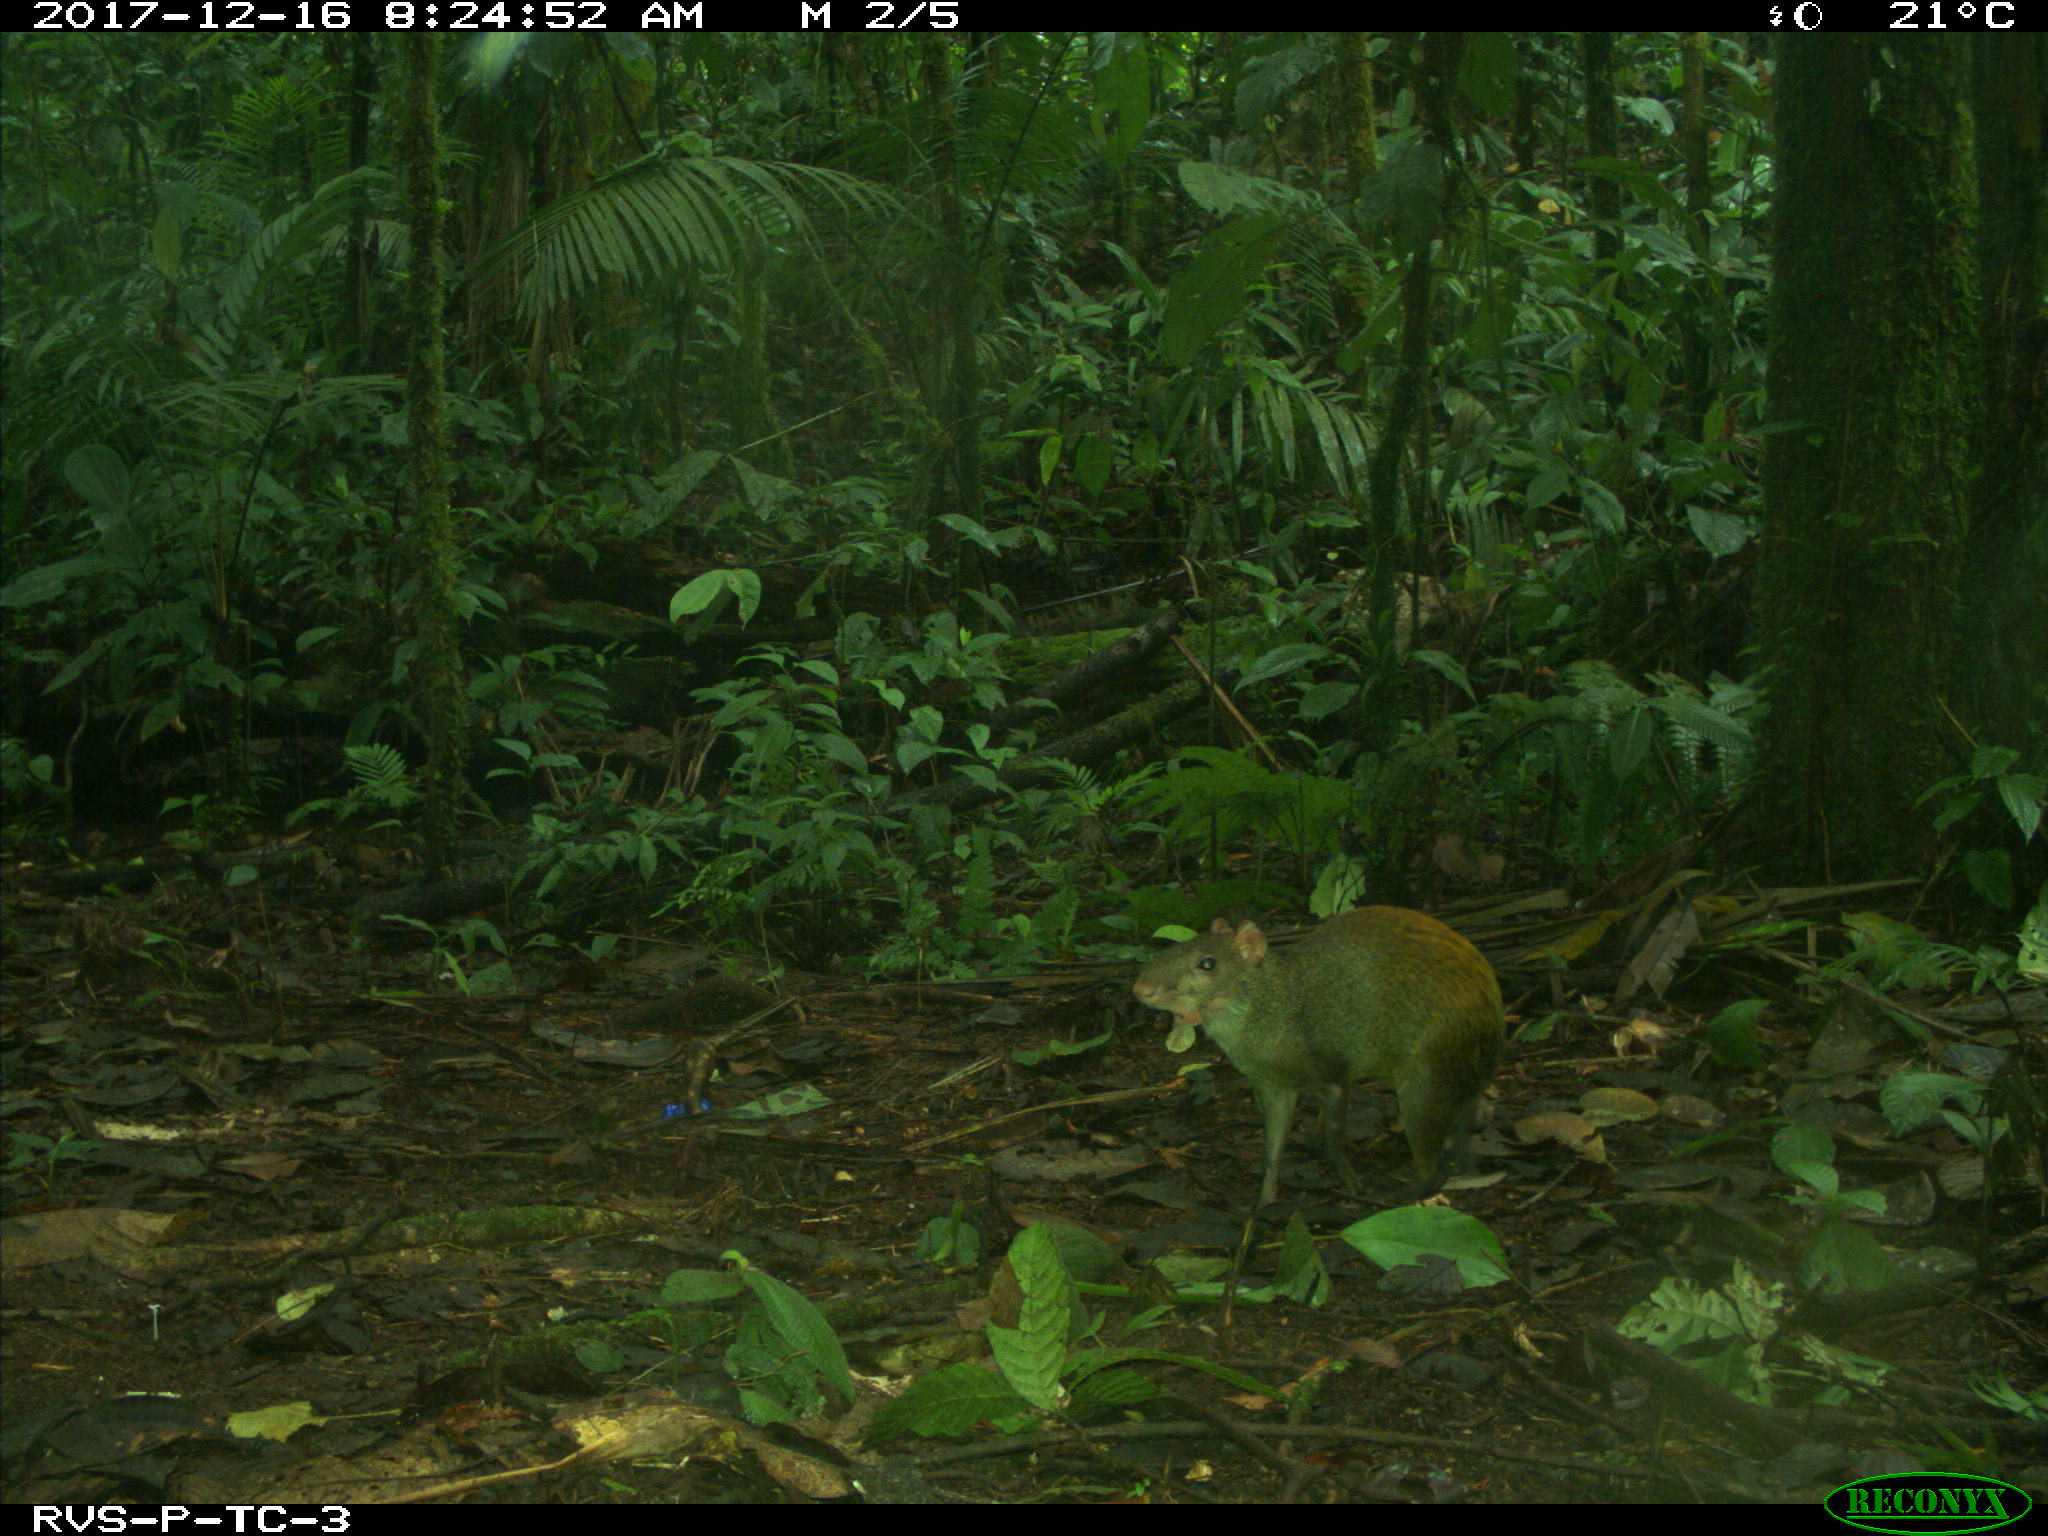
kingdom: Animalia
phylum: Chordata
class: Mammalia
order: Rodentia
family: Dasyproctidae
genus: Dasyprocta
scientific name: Dasyprocta punctata
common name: Central american agouti
